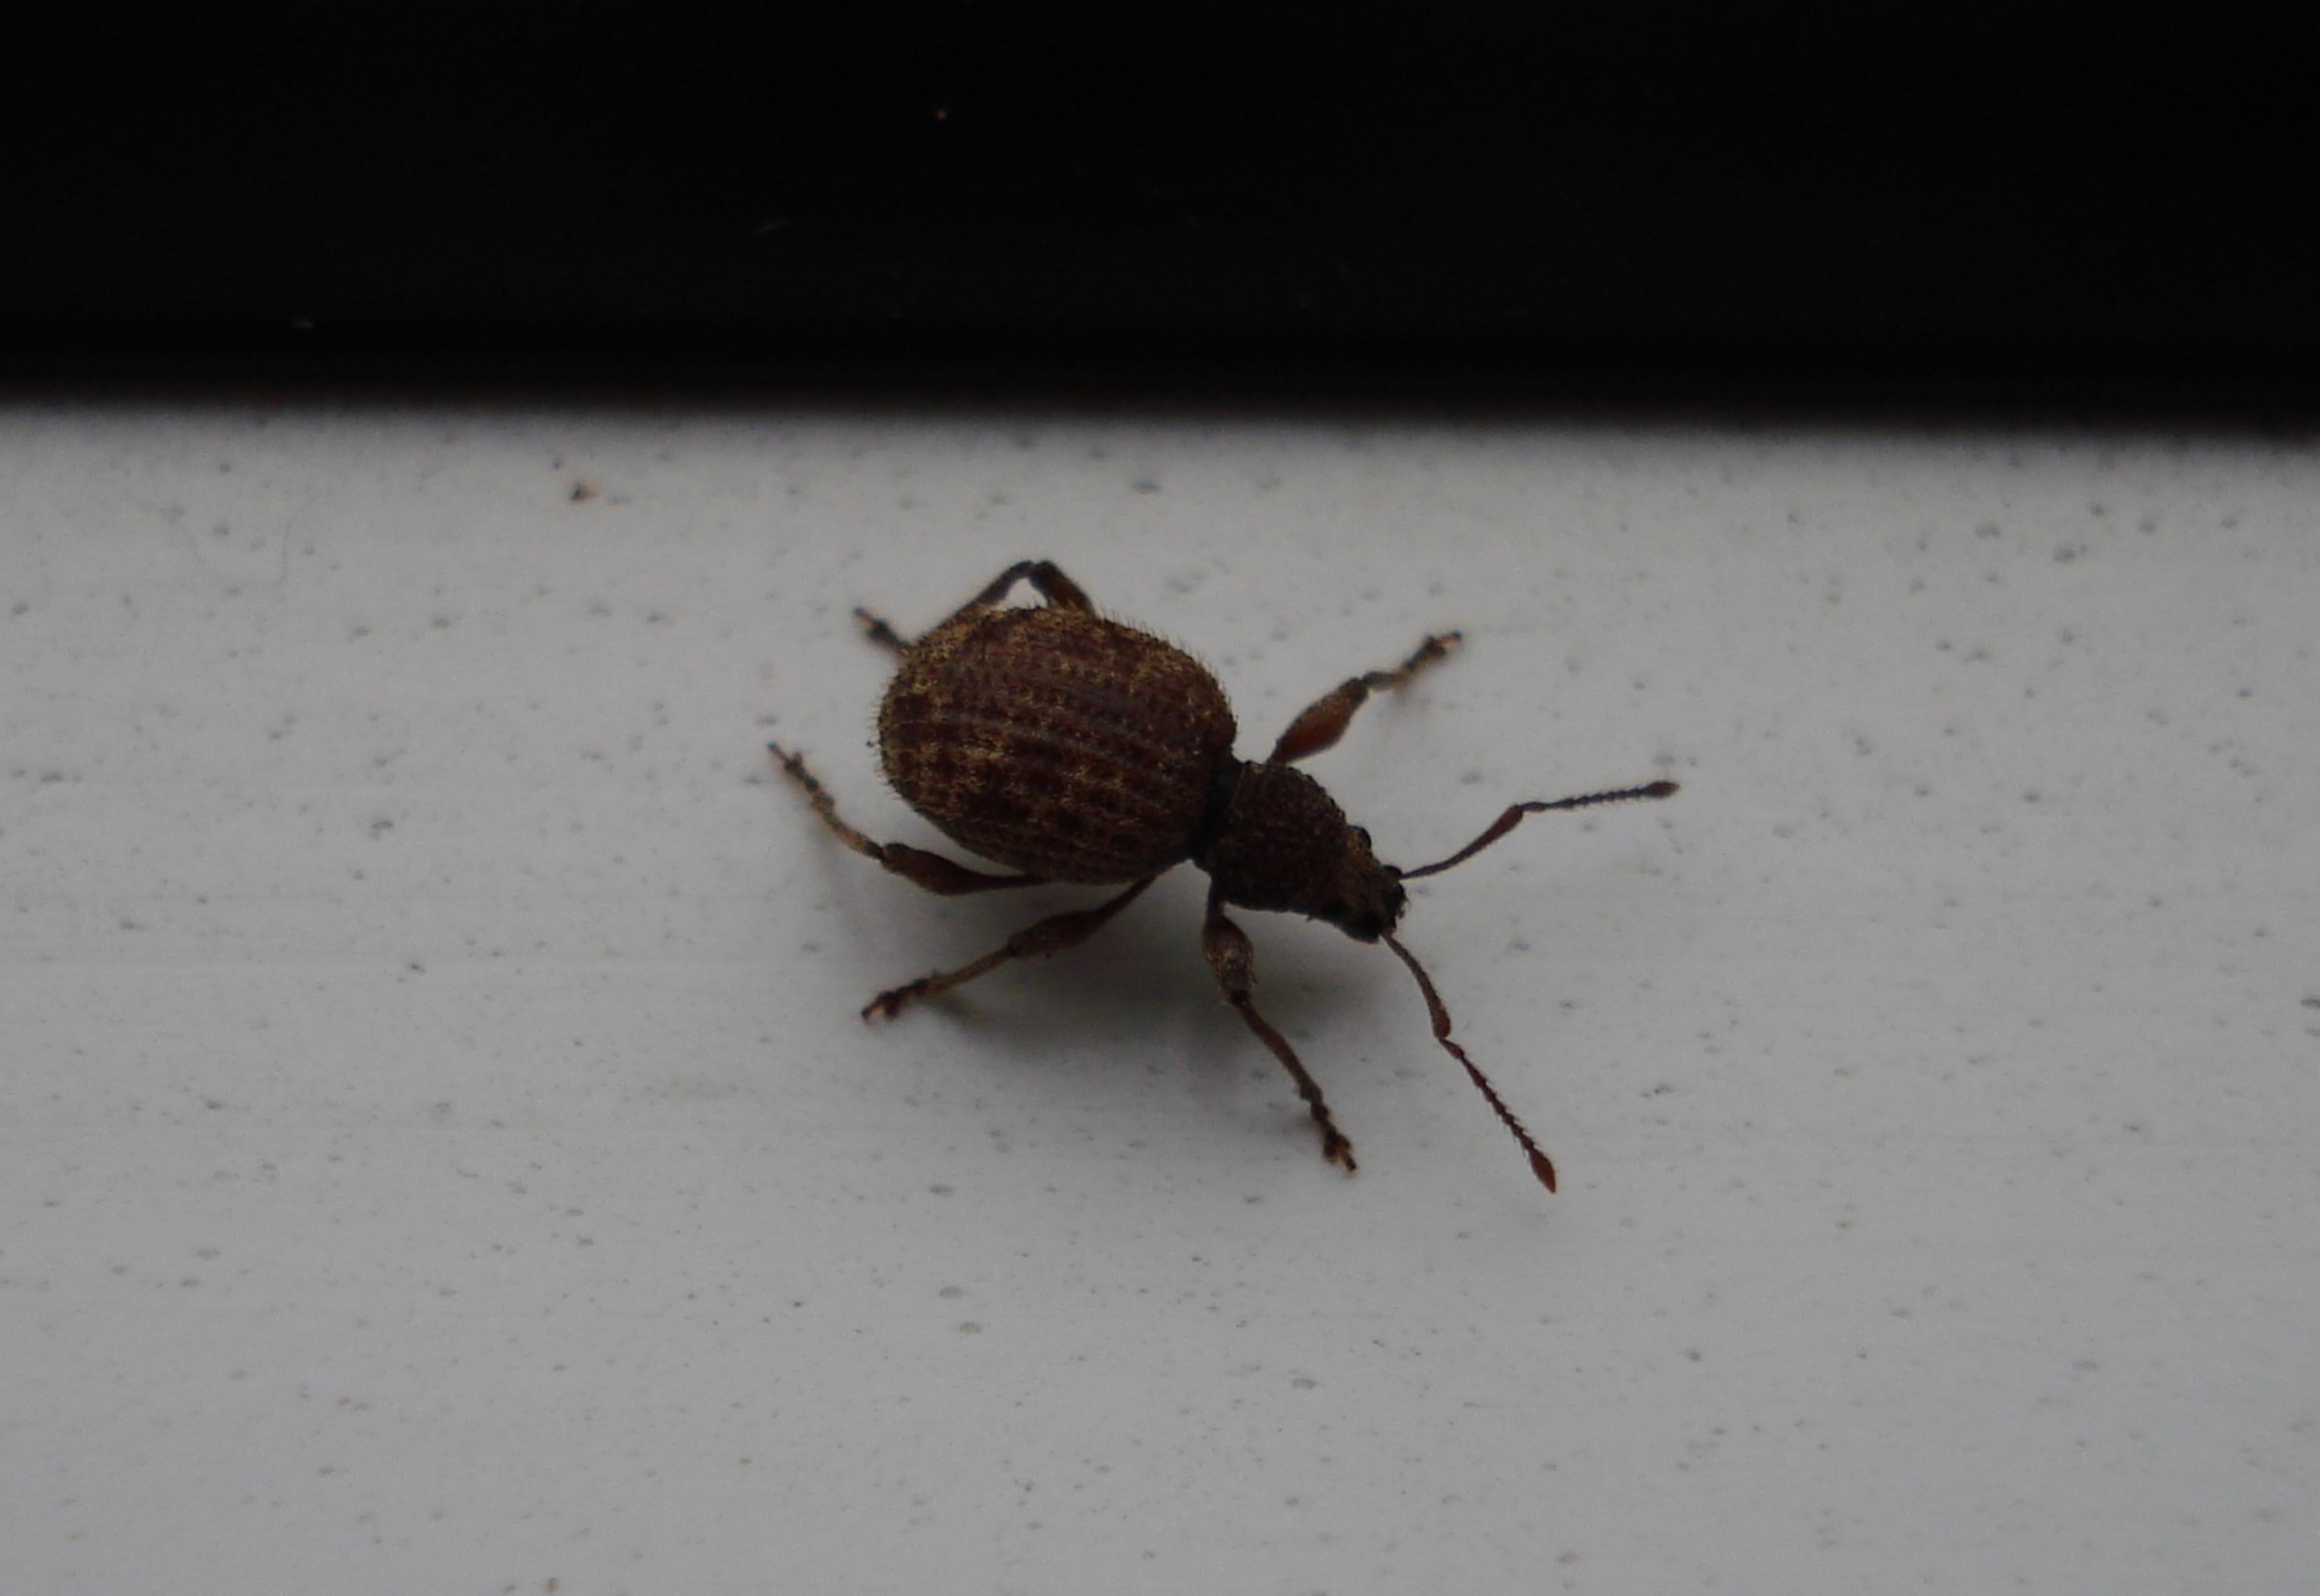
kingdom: Animalia
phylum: Arthropoda
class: Insecta
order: Coleoptera
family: Curculionidae
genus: Otiorhynchus
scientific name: Otiorhynchus crataegi
